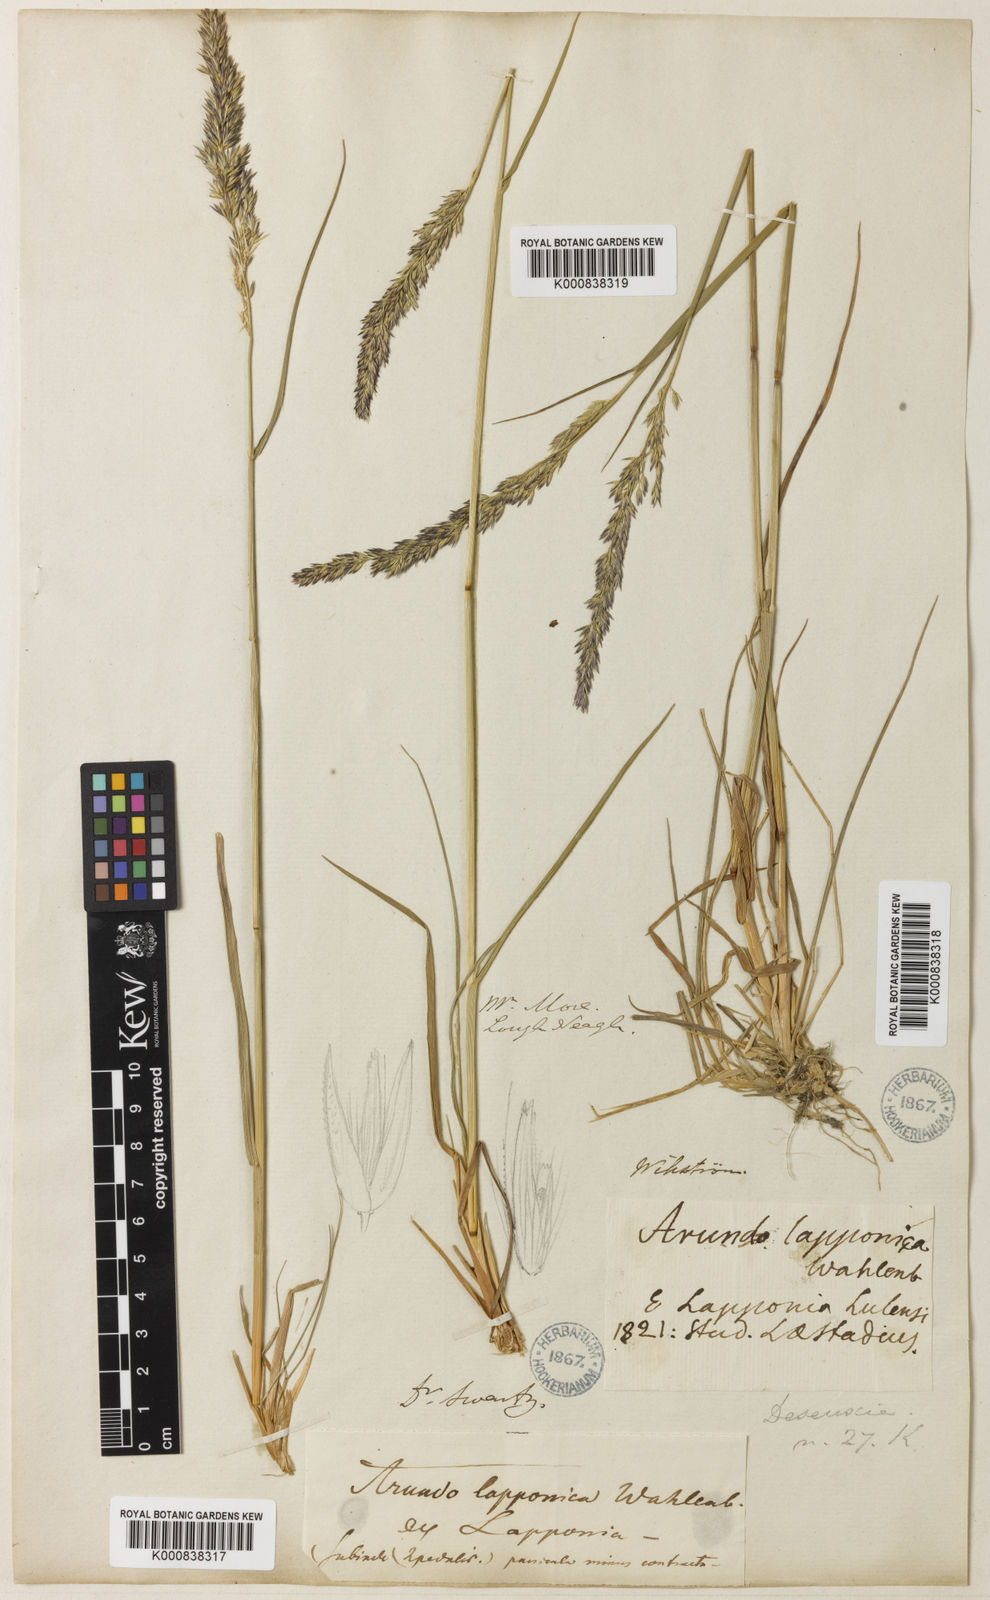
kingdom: Plantae
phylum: Tracheophyta
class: Liliopsida
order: Poales
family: Poaceae
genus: Calamagrostis
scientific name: Calamagrostis lapponica
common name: Lapland reedgrass
